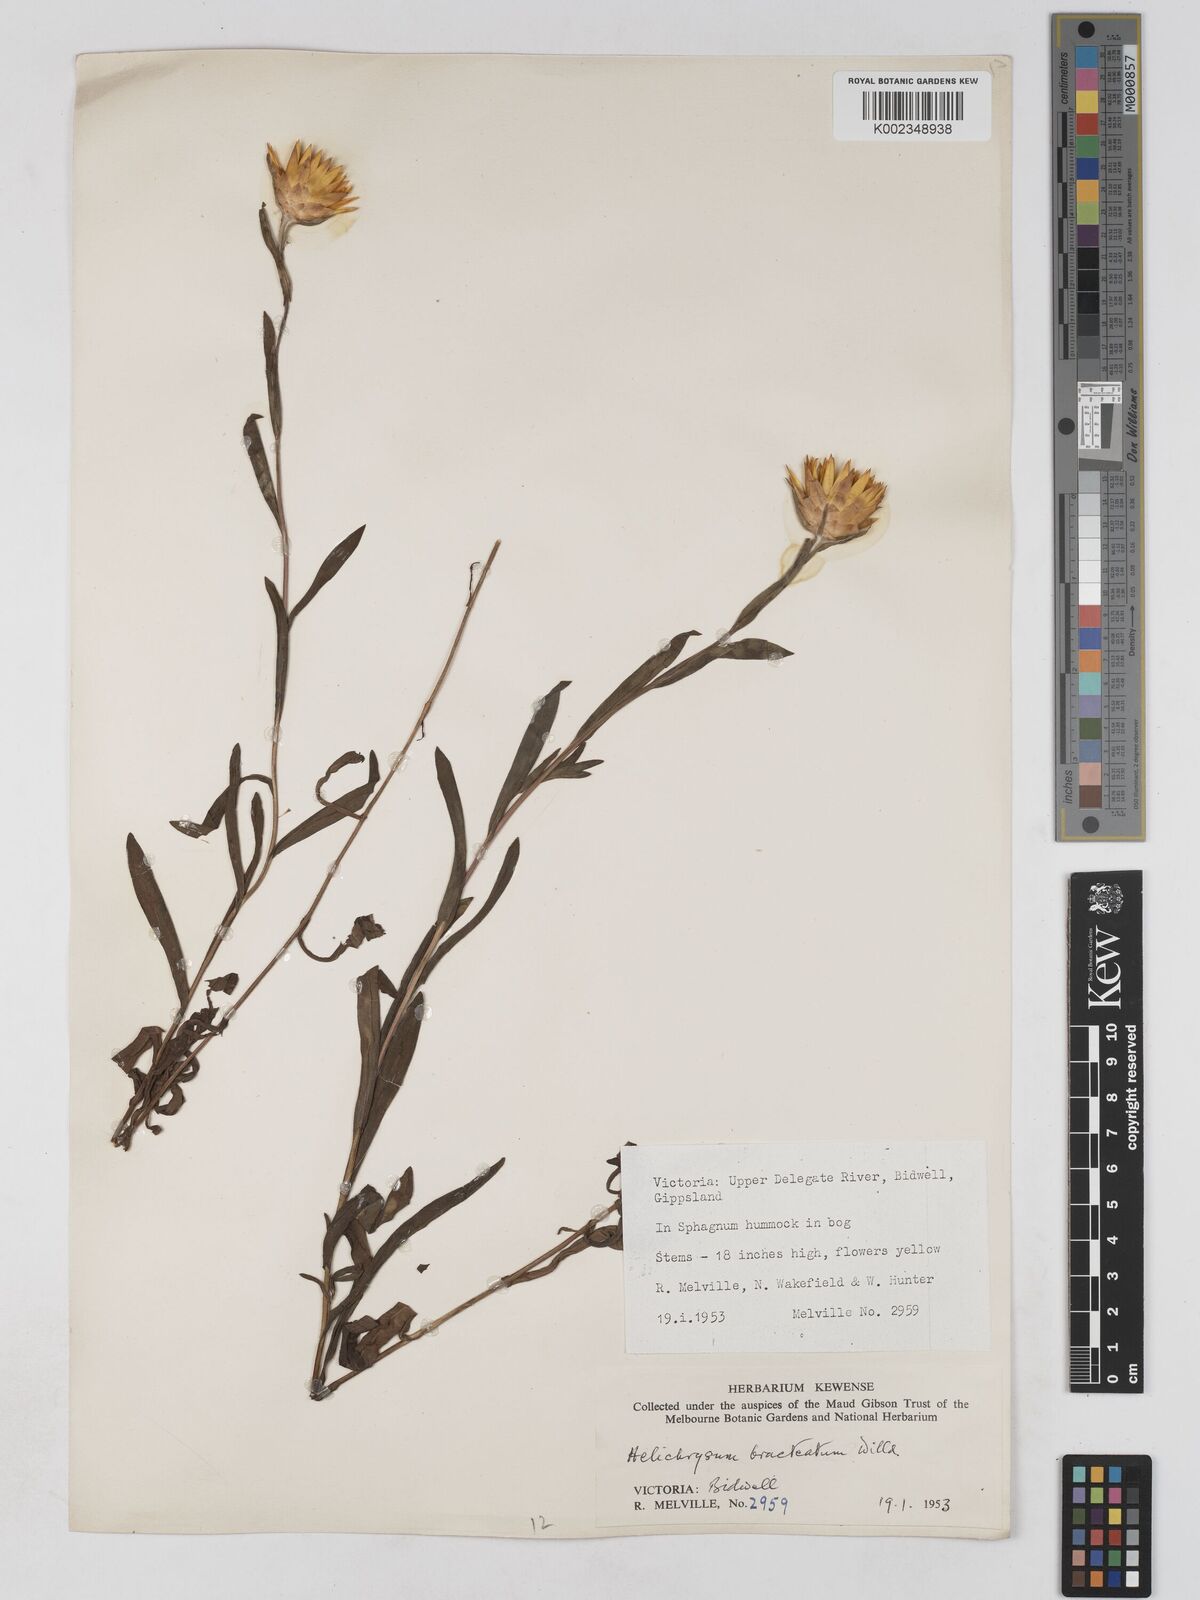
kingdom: Plantae
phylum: Tracheophyta
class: Magnoliopsida
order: Asterales
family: Asteraceae
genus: Xerochrysum
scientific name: Xerochrysum bracteatum
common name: Bracted strawflower
